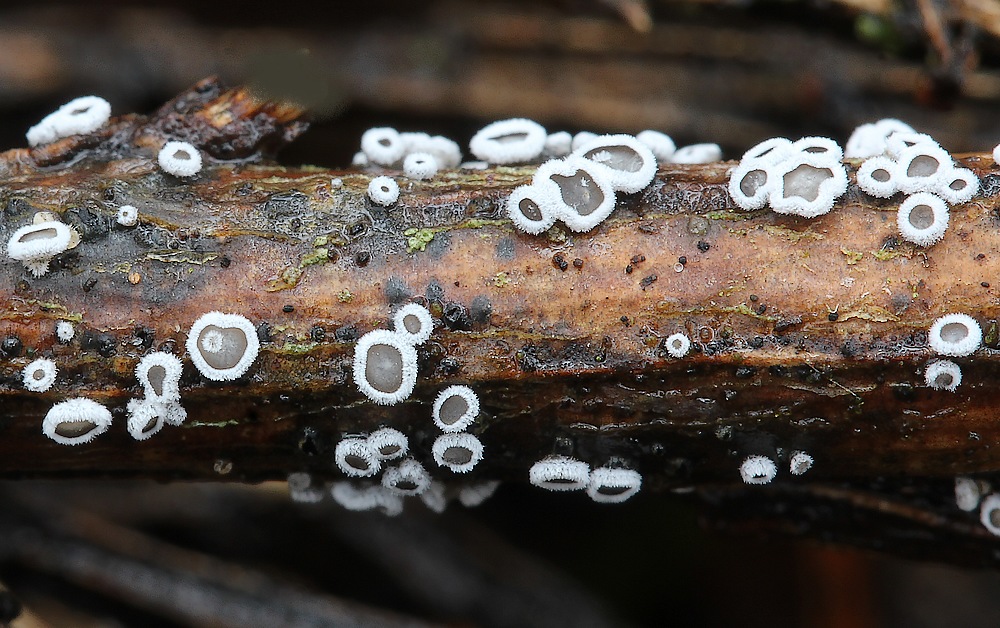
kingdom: Fungi
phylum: Basidiomycota
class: Agaricomycetes
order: Agaricales
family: Niaceae
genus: Lachnella
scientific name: Lachnella alboviolascens
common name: grå frynserede
